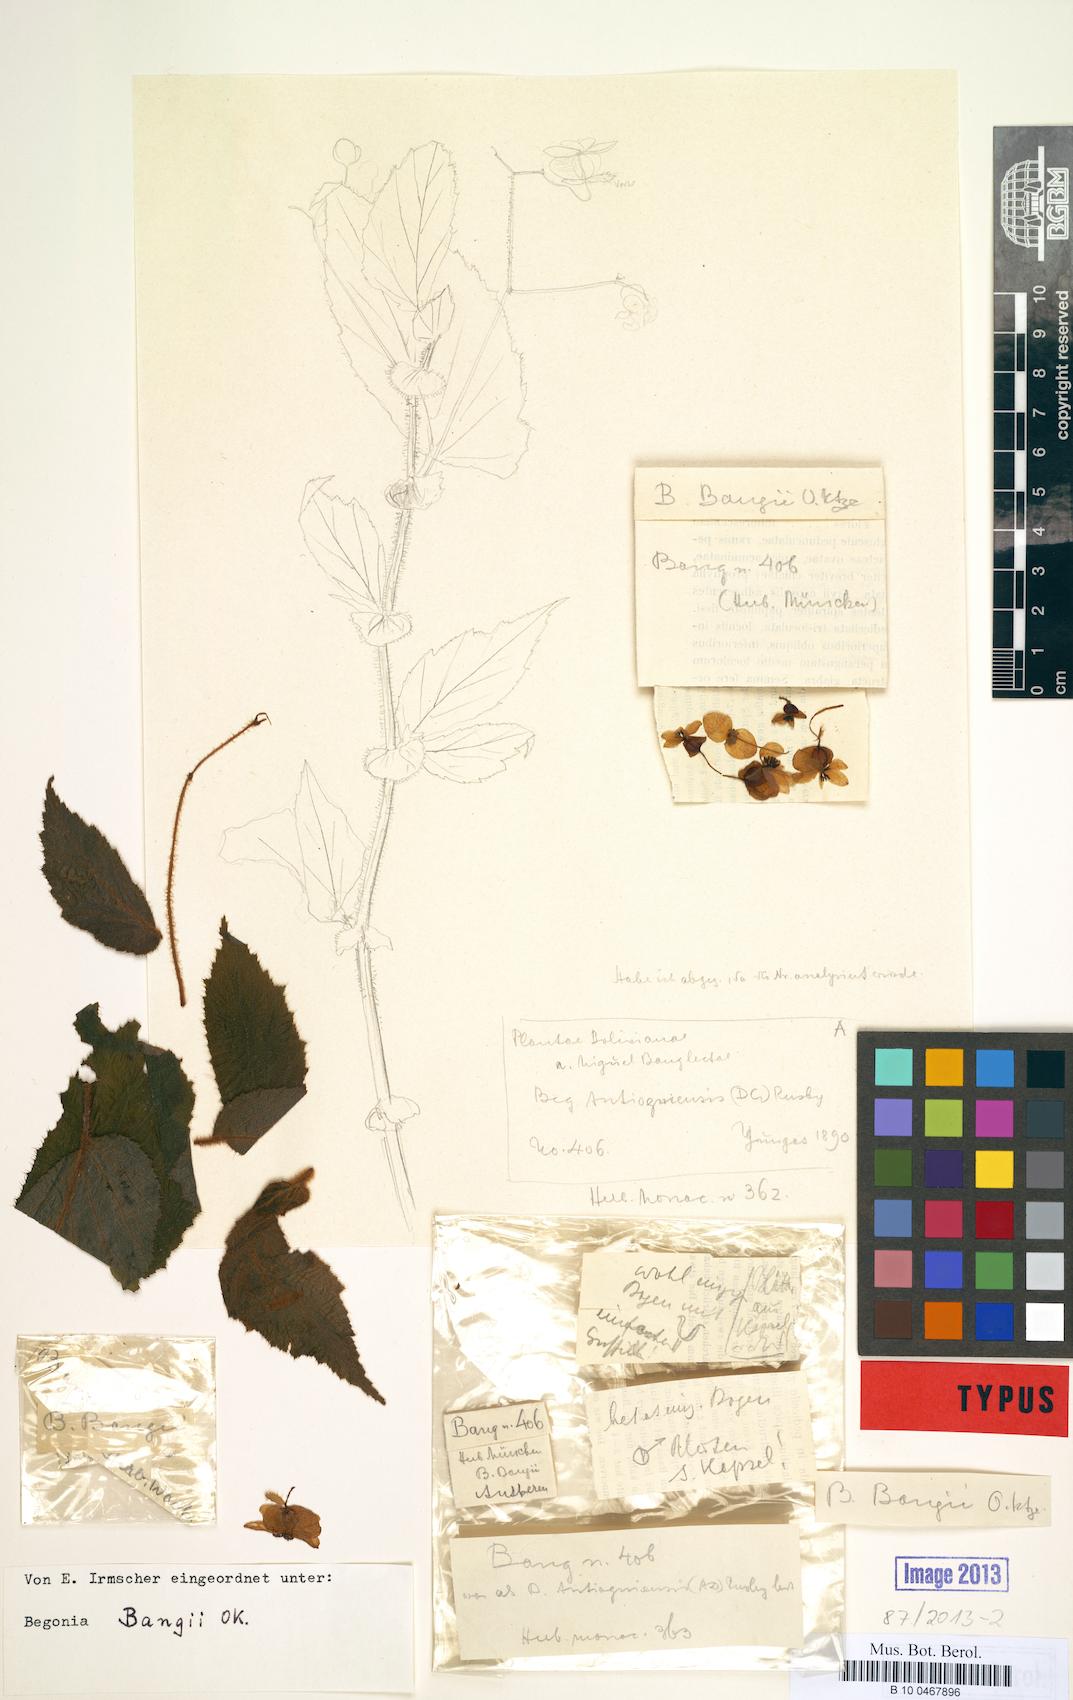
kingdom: Plantae
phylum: Tracheophyta
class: Magnoliopsida
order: Cucurbitales
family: Begoniaceae
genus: Begonia
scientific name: Begonia bangii
